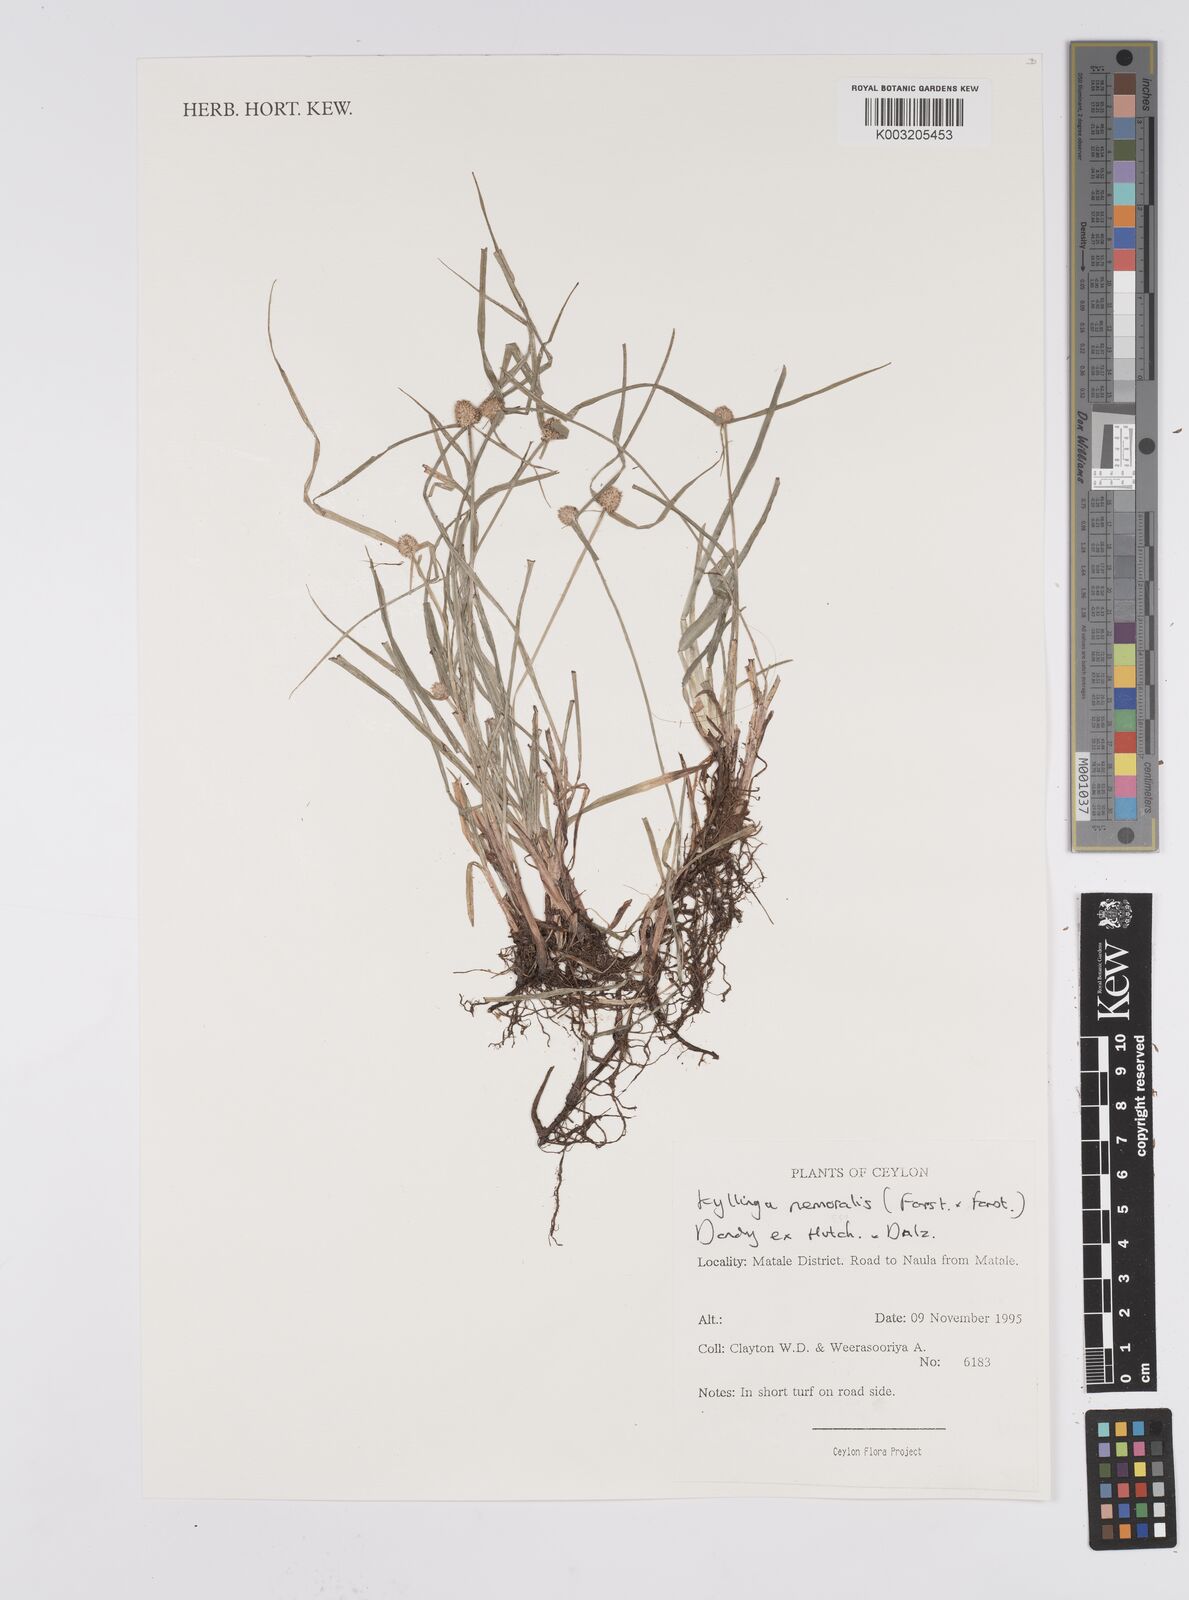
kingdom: Plantae
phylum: Tracheophyta
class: Liliopsida
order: Poales
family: Cyperaceae
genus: Cyperus
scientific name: Cyperus
